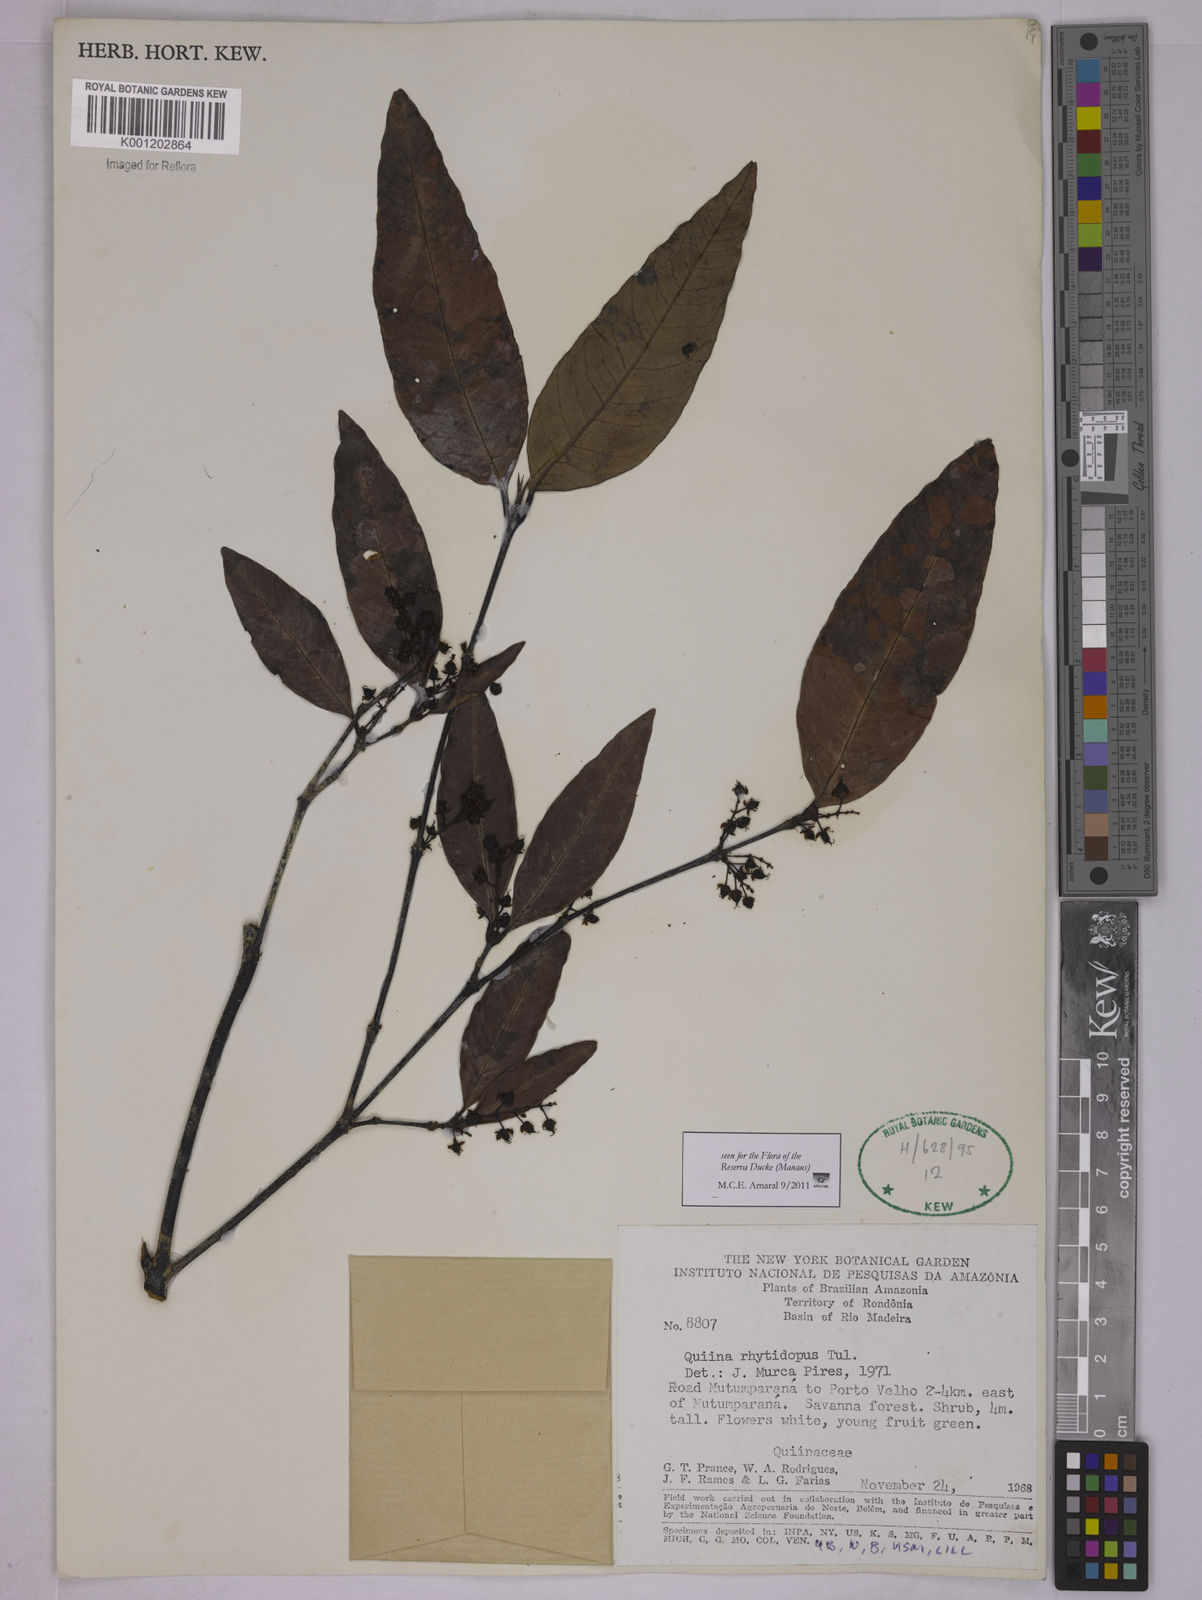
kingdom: Plantae
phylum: Tracheophyta
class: Magnoliopsida
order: Malpighiales
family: Quiinaceae
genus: Quiina
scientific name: Quiina rhytidopus
